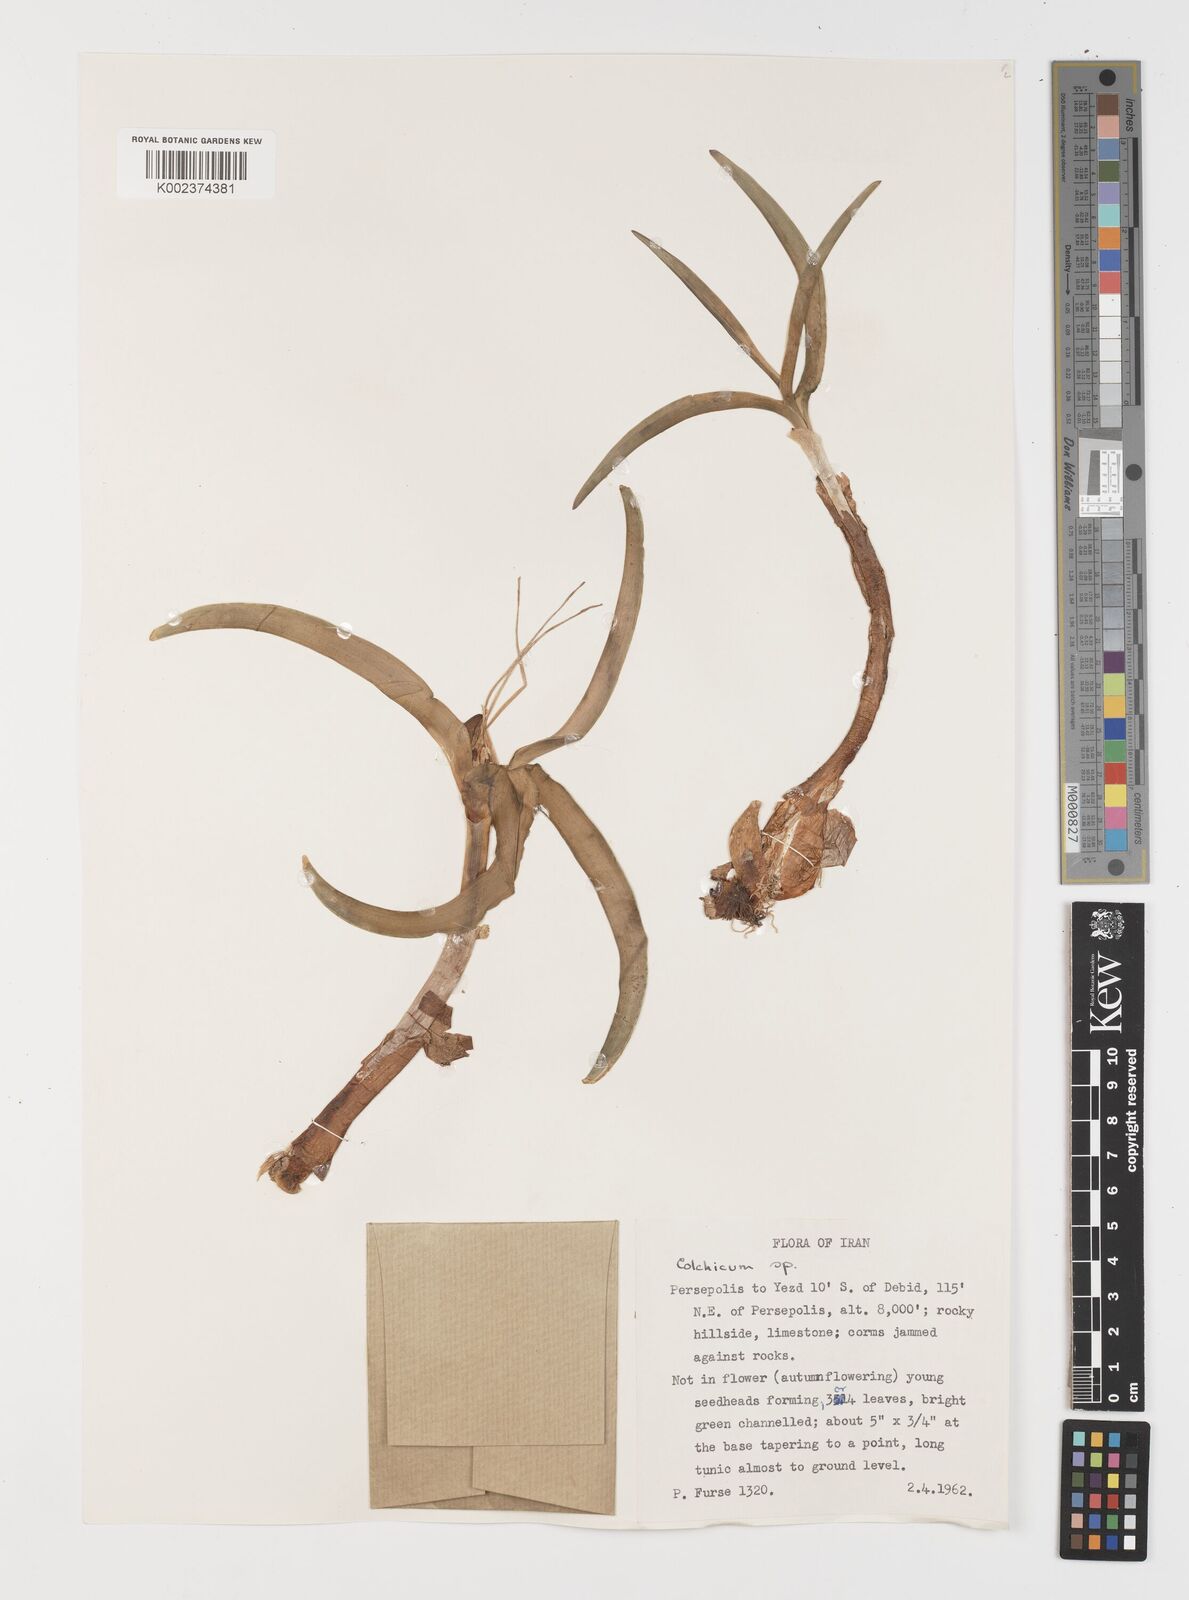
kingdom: Plantae
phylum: Tracheophyta
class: Liliopsida
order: Liliales
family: Colchicaceae
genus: Colchicum
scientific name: Colchicum
